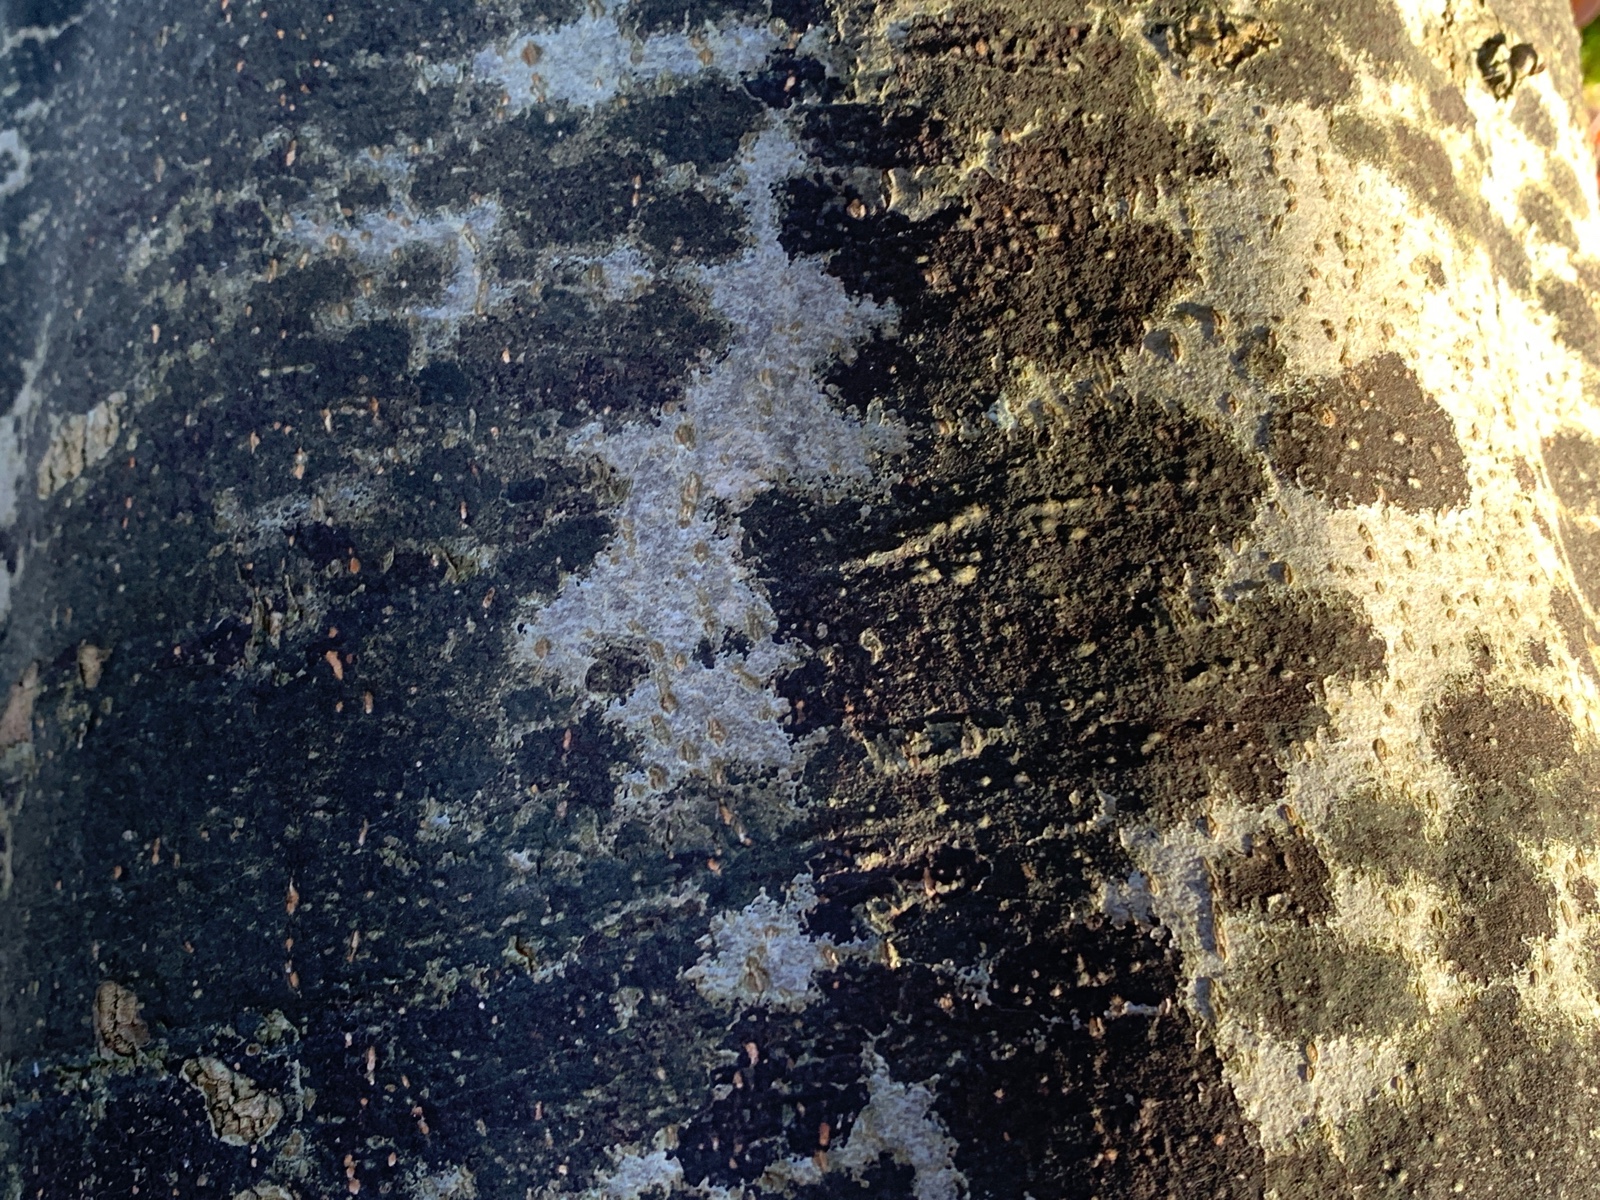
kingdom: Fungi
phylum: Ascomycota
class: Leotiomycetes
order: Rhytismatales
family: Ascodichaenaceae
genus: Ascodichaena
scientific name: Ascodichaena rugosa
